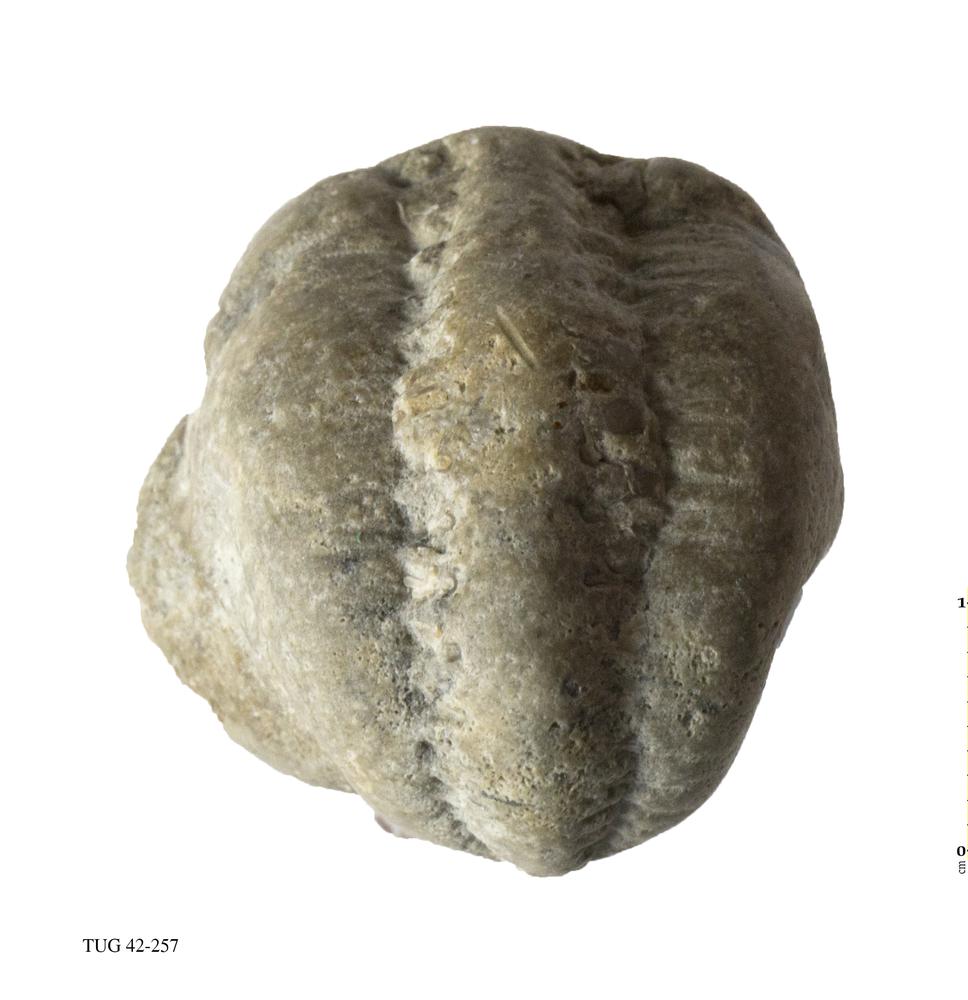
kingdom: Animalia
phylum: Arthropoda
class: Trilobita
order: Phacopida
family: Phacopidae
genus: Phacops
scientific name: Phacops
